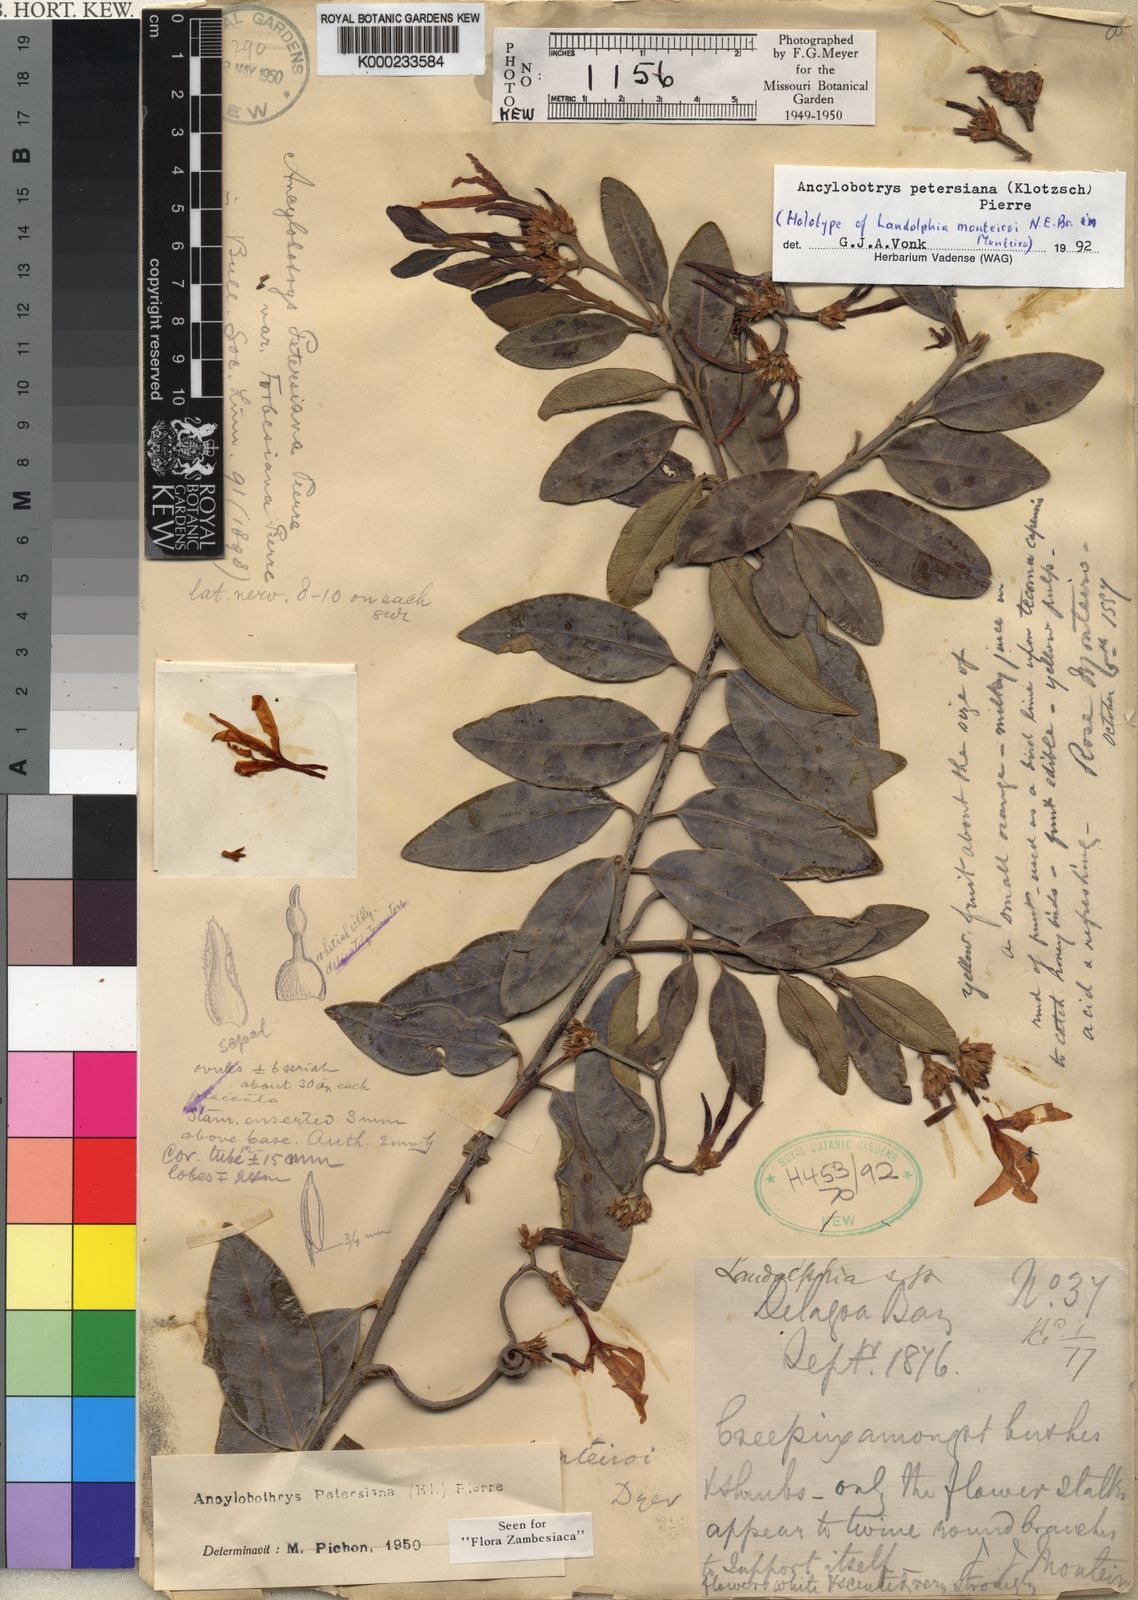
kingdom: Plantae
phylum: Tracheophyta
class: Magnoliopsida
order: Gentianales
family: Apocynaceae
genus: Ancylobothrys
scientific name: Ancylobothrys petersiana
